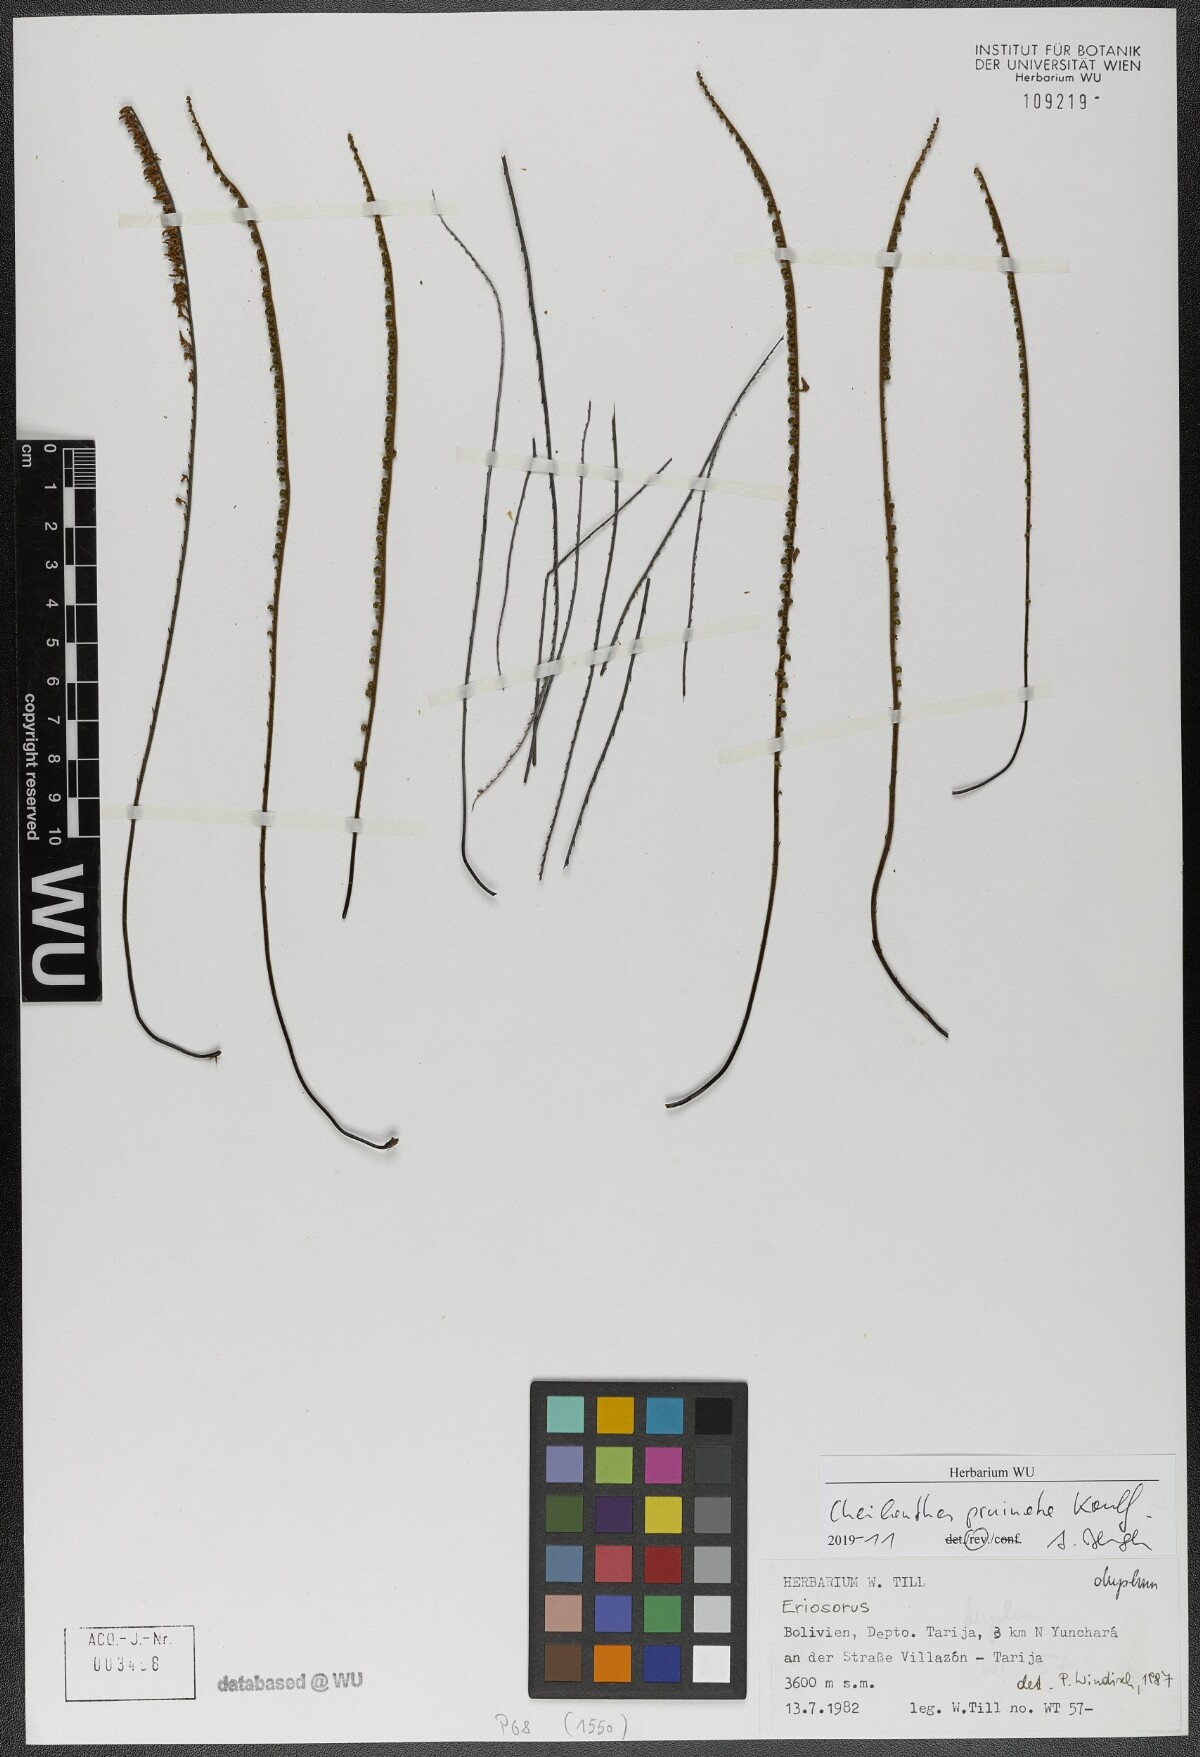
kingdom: Plantae
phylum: Tracheophyta
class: Polypodiopsida
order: Polypodiales
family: Pteridaceae
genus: Cheilanthes
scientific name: Cheilanthes pruinata
